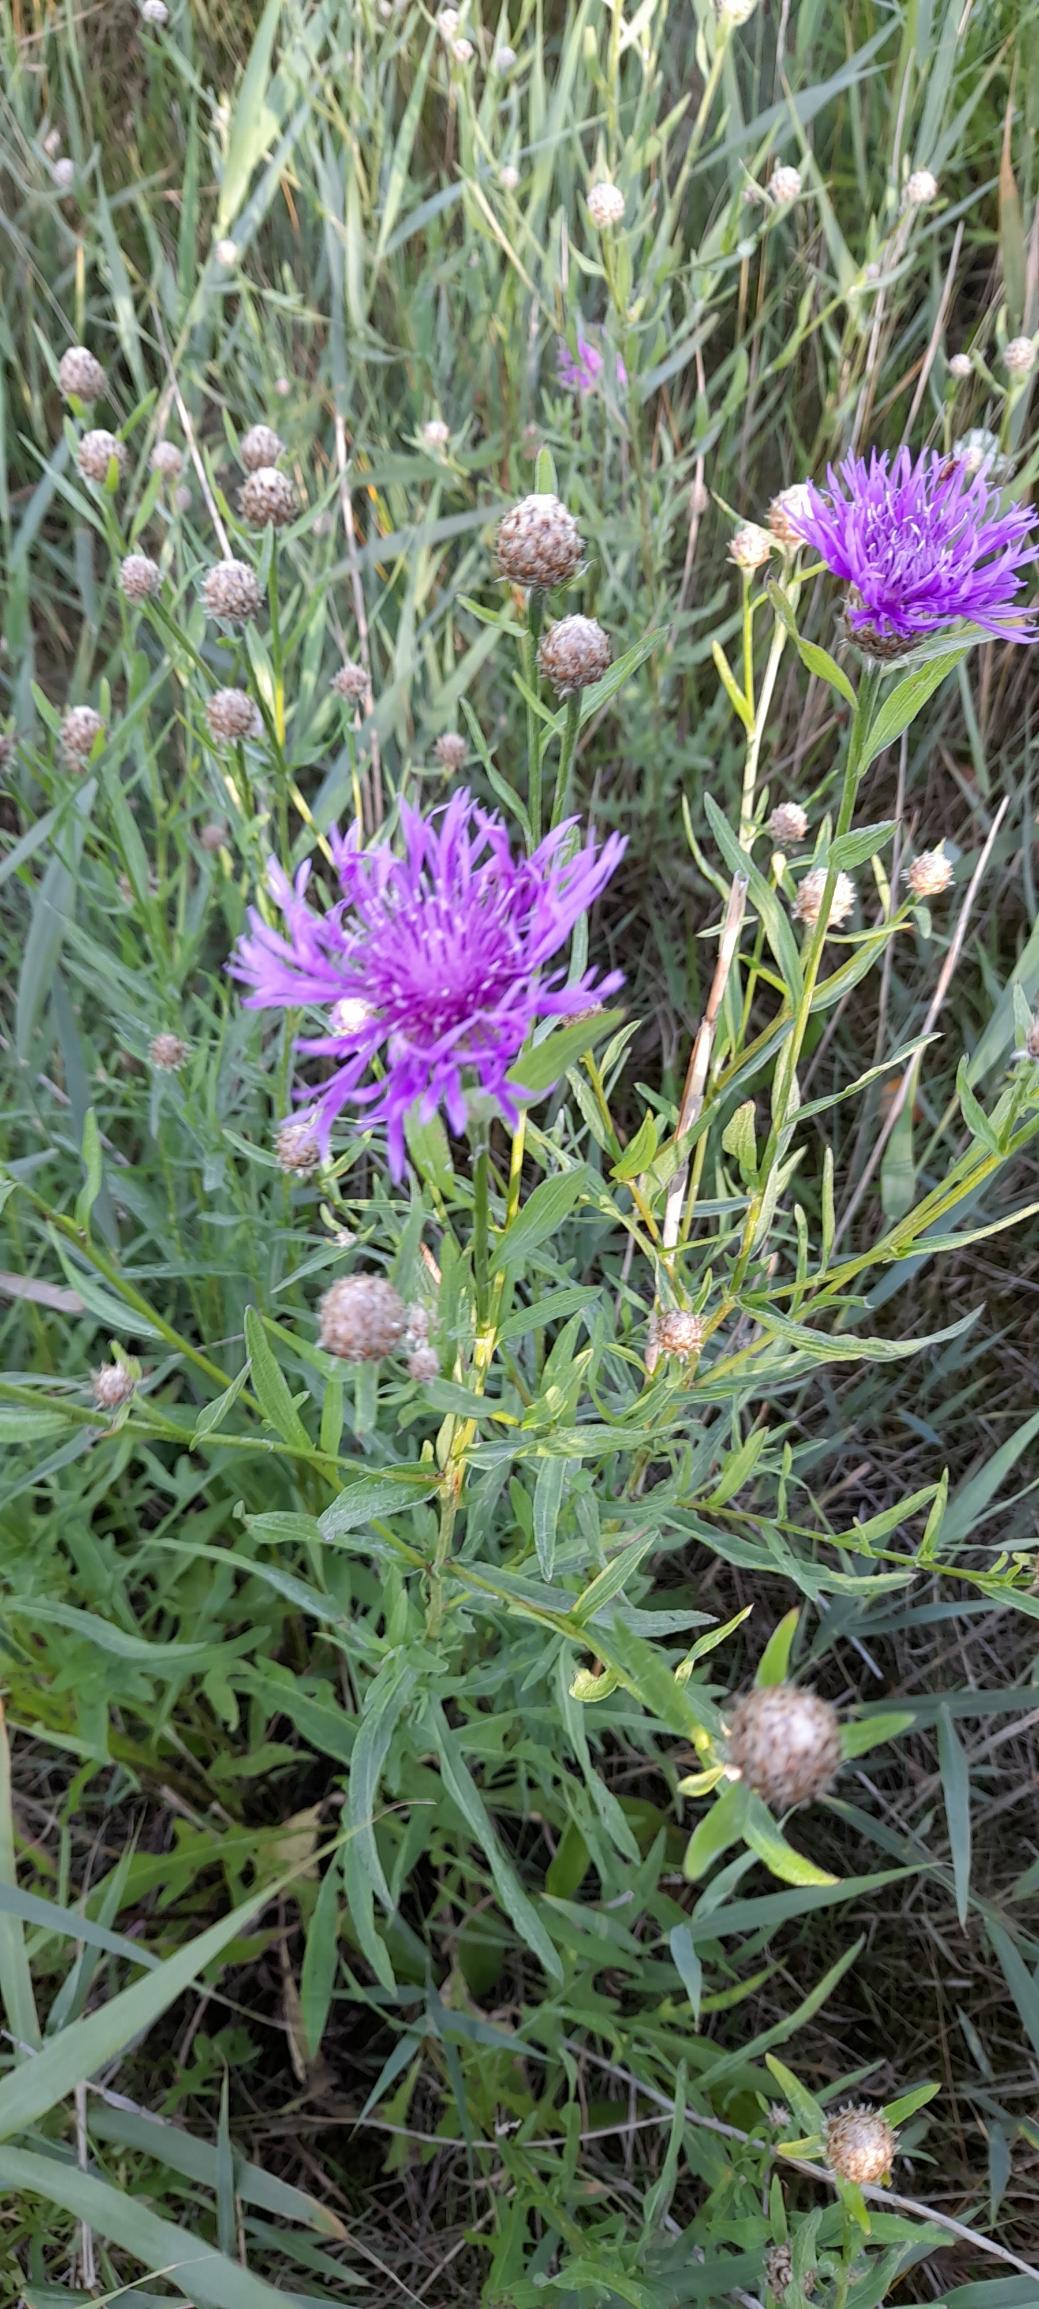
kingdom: Plantae
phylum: Tracheophyta
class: Magnoliopsida
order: Asterales
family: Asteraceae
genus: Centaurea
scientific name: Centaurea jacea
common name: Almindelig knopurt
